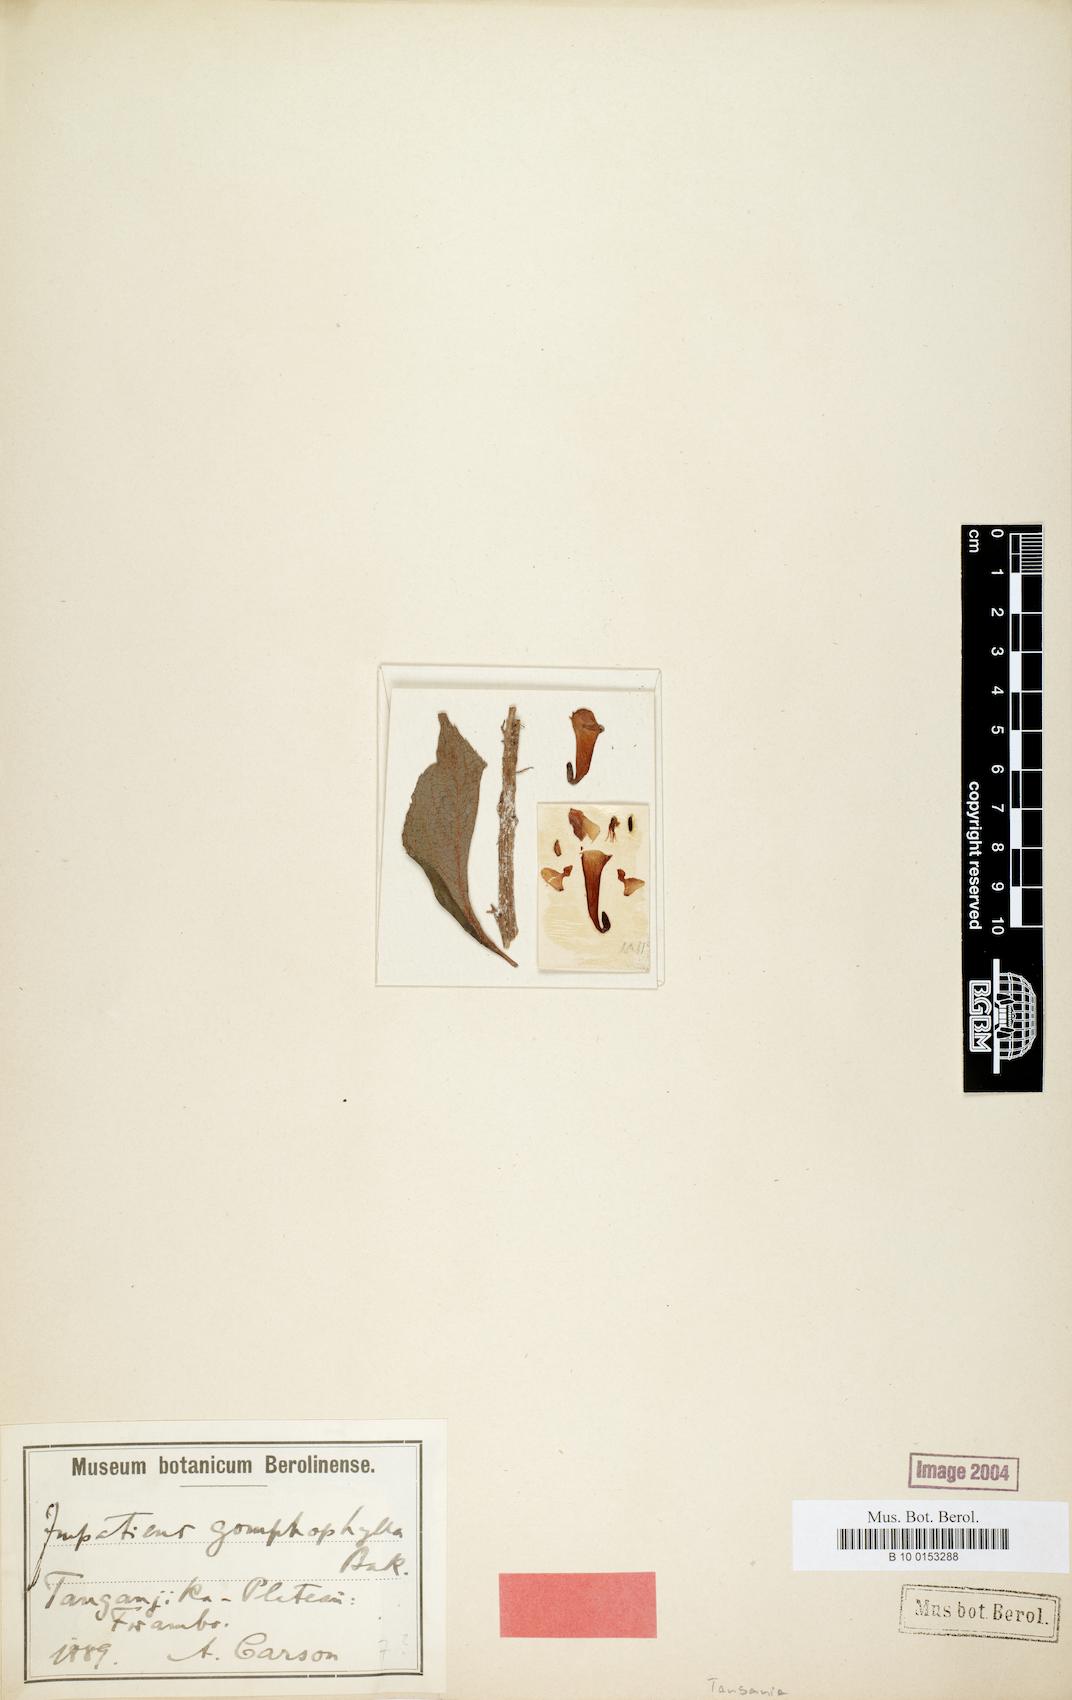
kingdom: Plantae
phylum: Tracheophyta
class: Magnoliopsida
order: Ericales
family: Balsaminaceae
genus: Impatiens
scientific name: Impatiens gomphophylla
